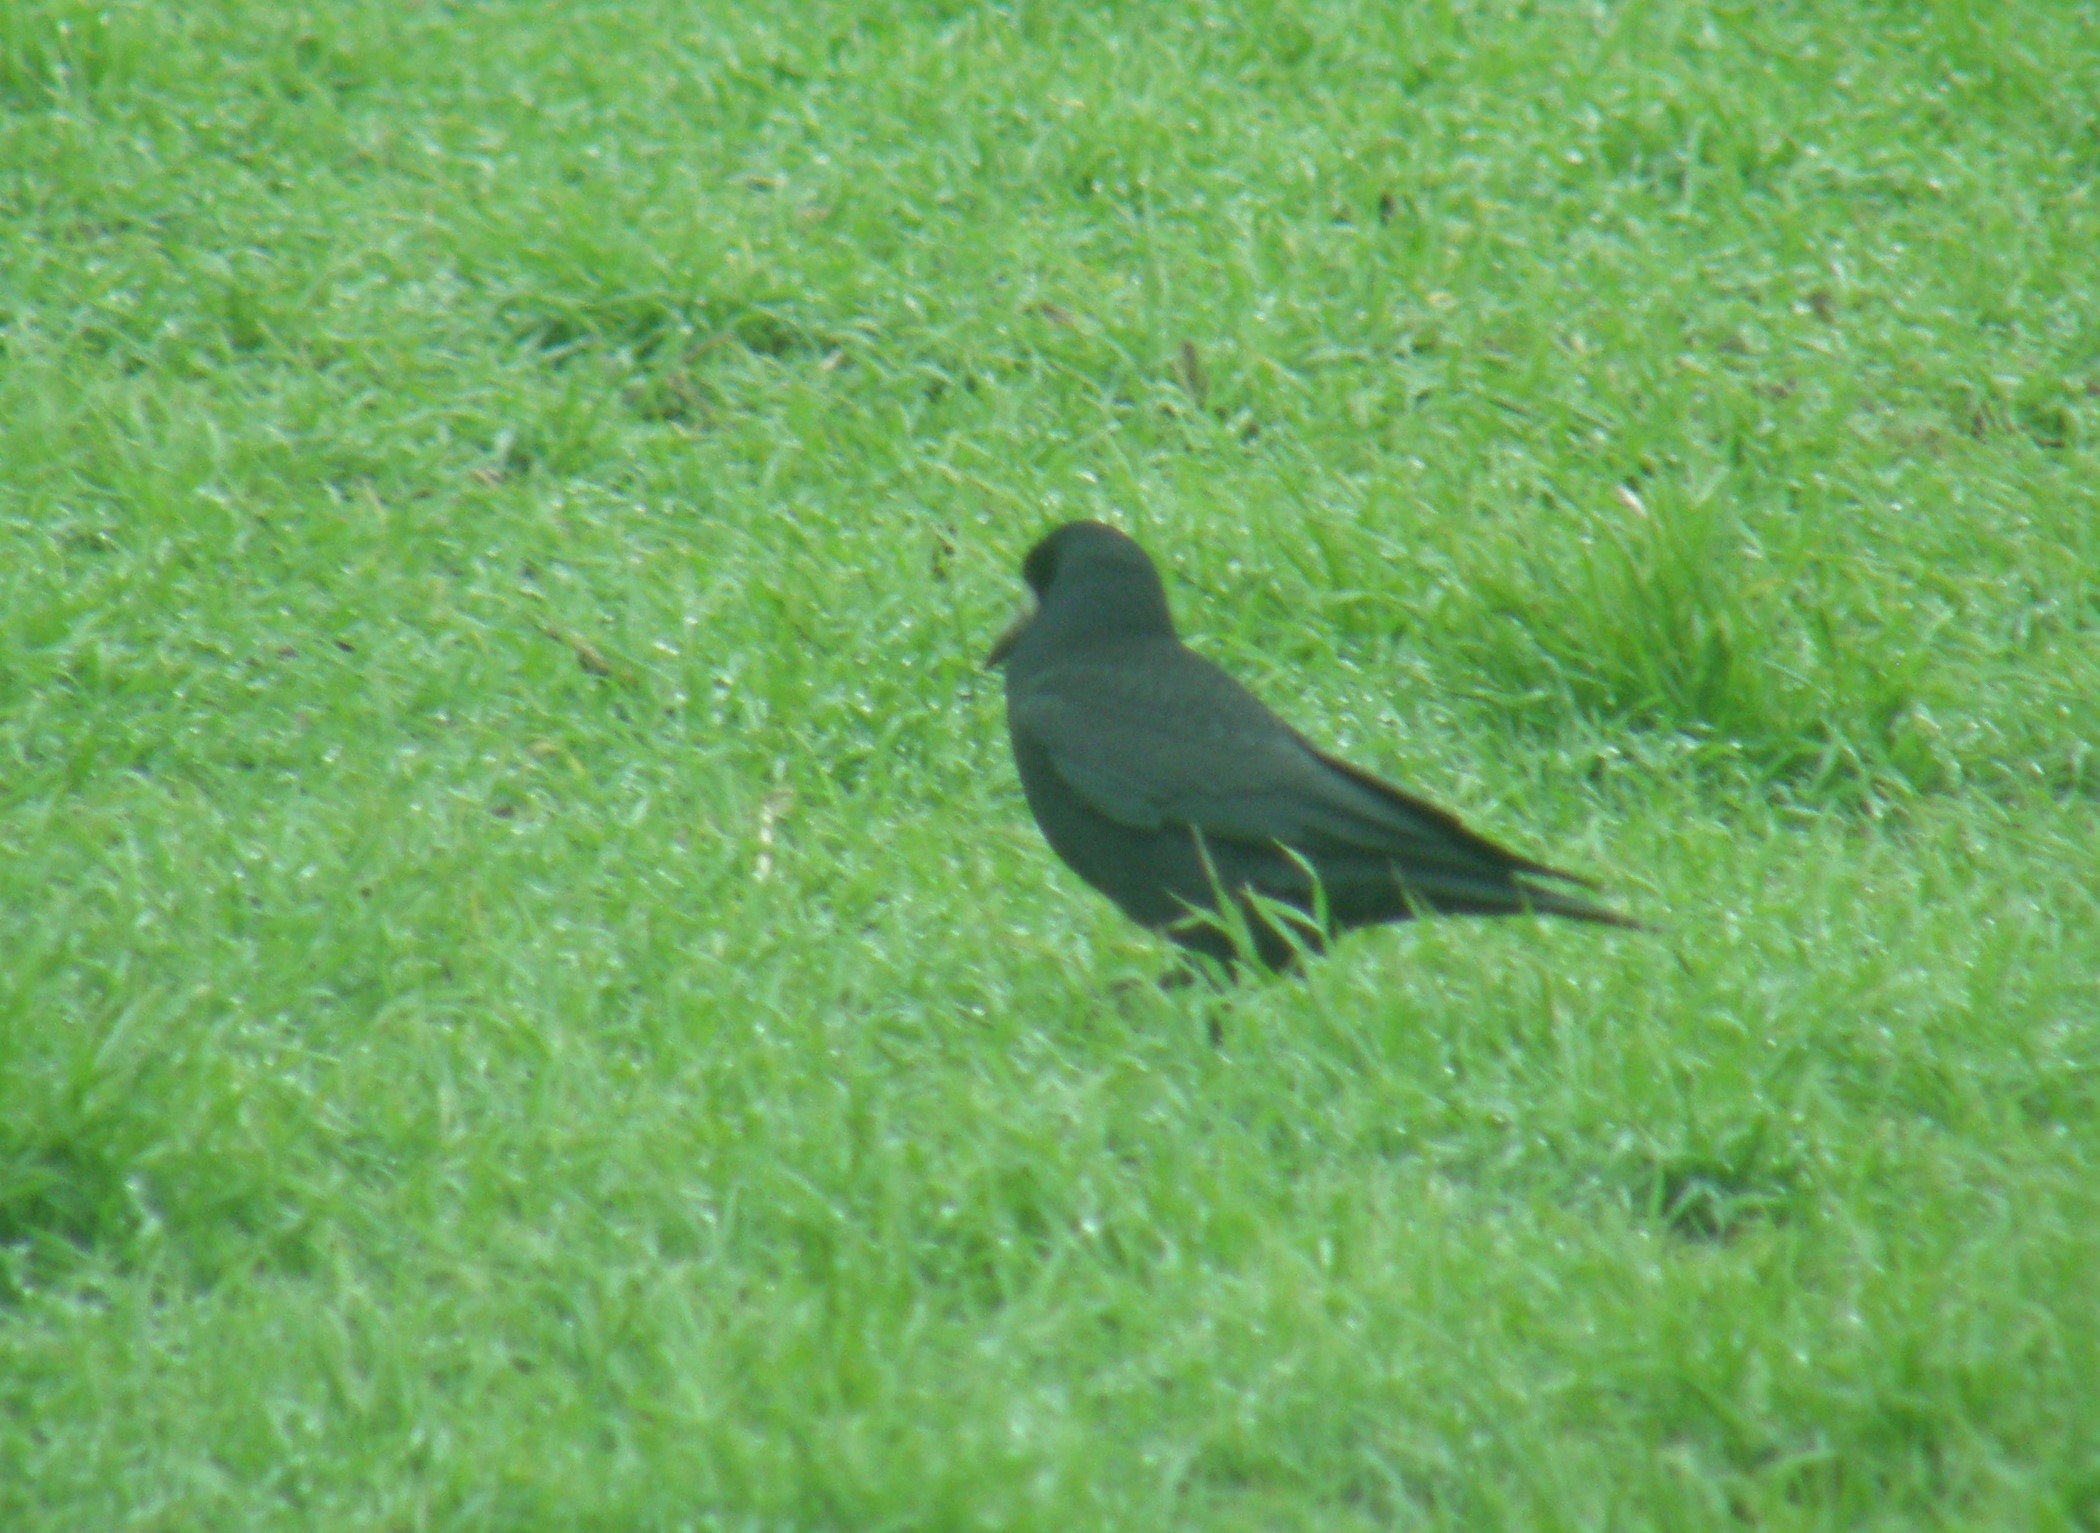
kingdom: Animalia
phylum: Chordata
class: Aves
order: Passeriformes
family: Corvidae
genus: Corvus
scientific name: Corvus frugilegus
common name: Råge
